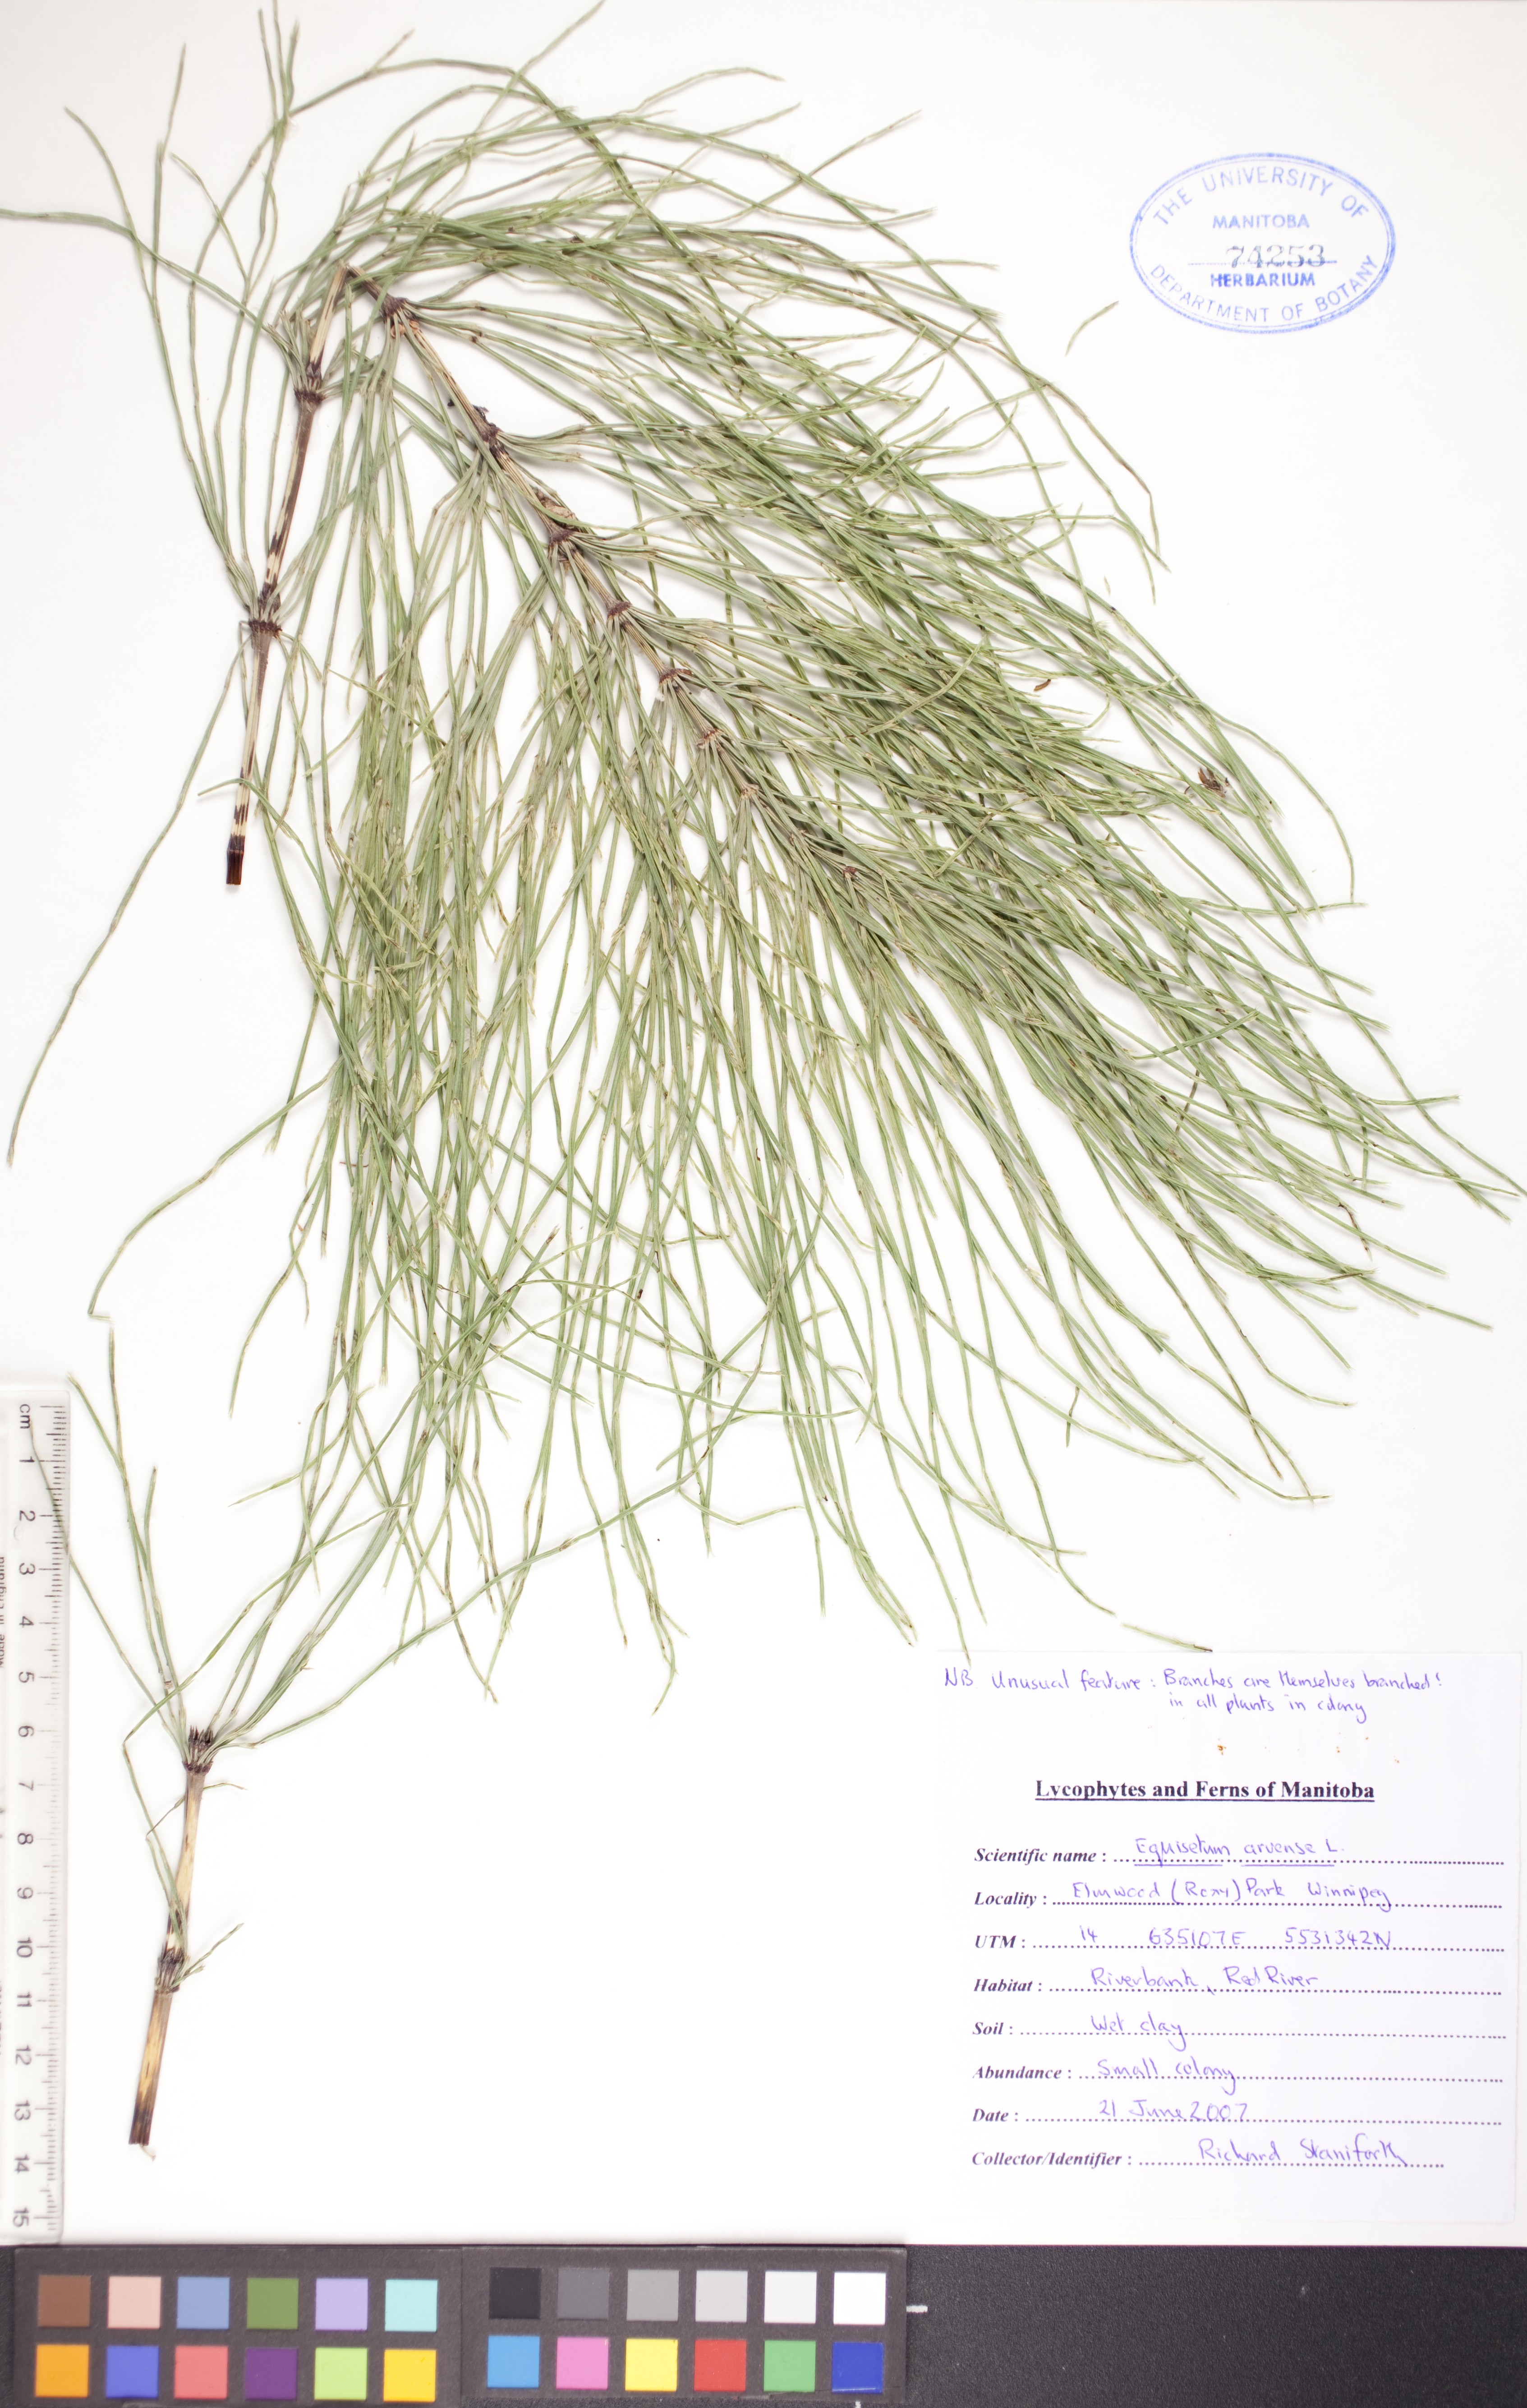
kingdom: Plantae
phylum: Tracheophyta
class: Polypodiopsida
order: Equisetales
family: Equisetaceae
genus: Equisetum
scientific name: Equisetum arvense
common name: Field horsetail
